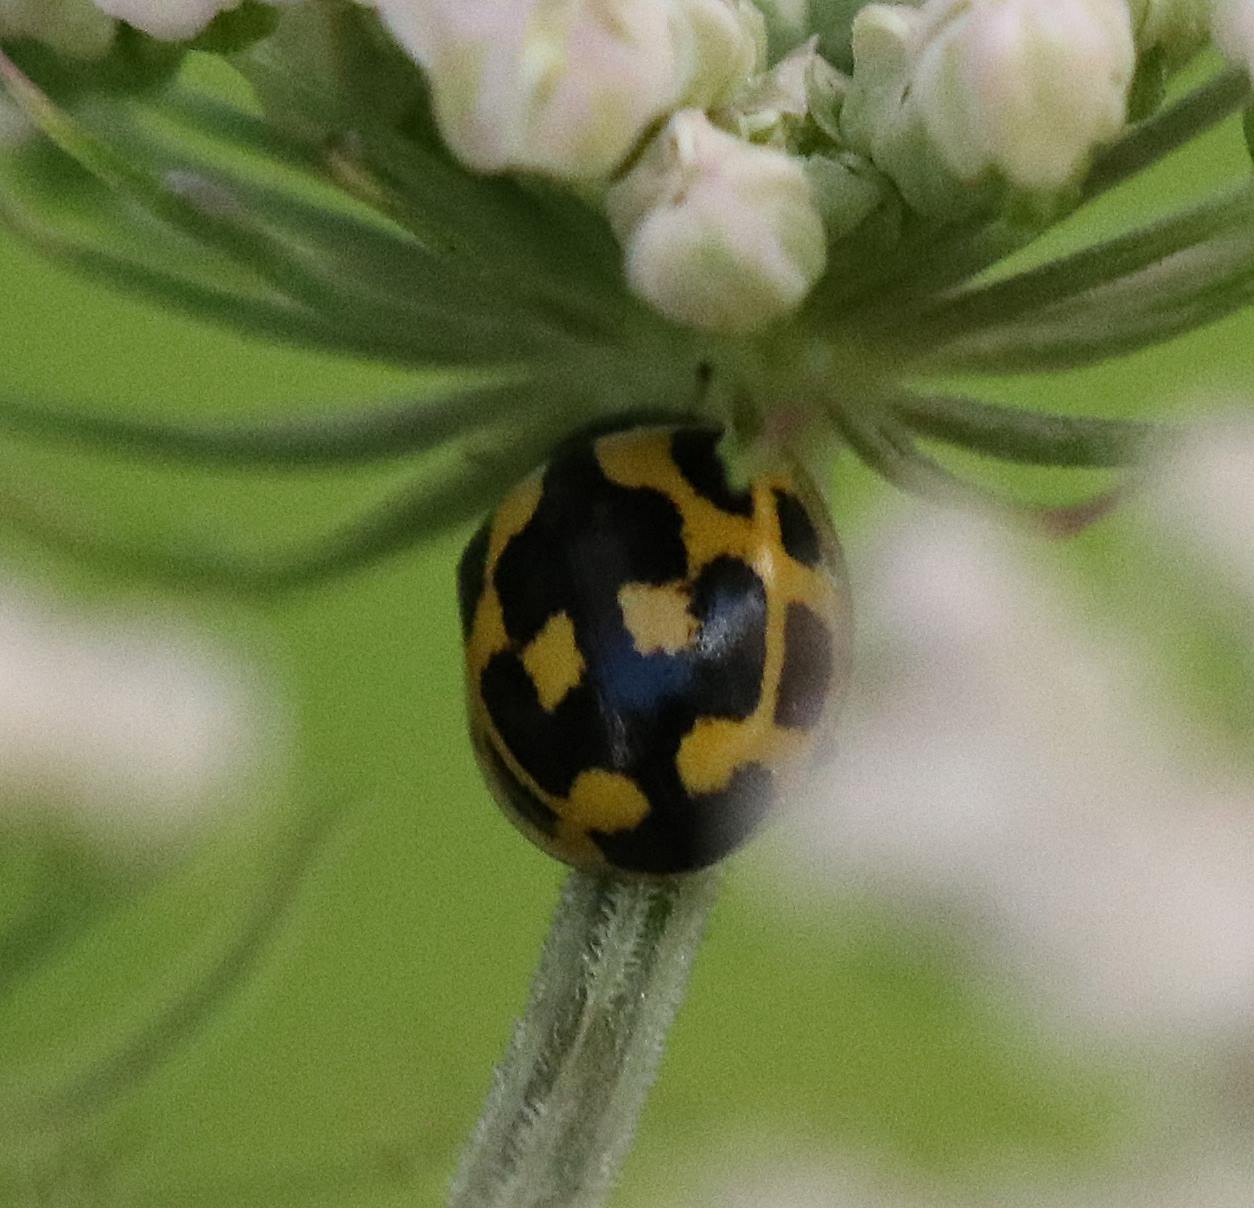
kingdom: Animalia
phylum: Arthropoda
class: Insecta
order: Coleoptera
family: Coccinellidae
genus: Propylaea
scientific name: Propylaea quatuordecimpunctata
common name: Skakbræt
